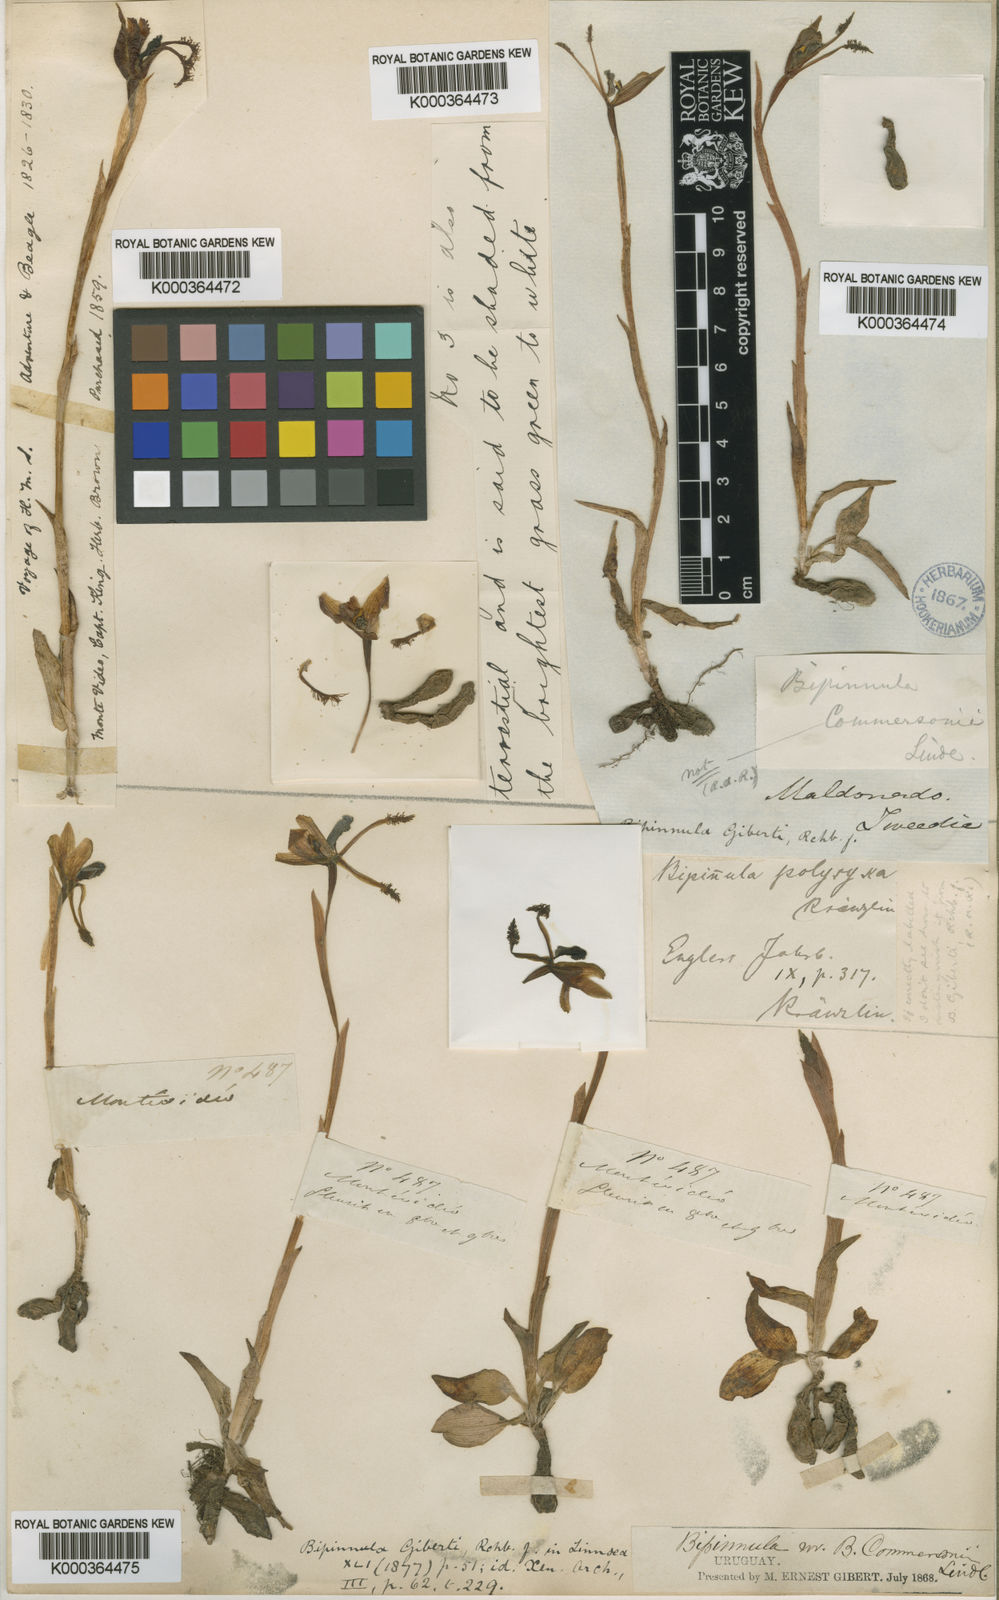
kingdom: Plantae
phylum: Tracheophyta
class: Liliopsida
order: Asparagales
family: Orchidaceae
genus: Bipinnula
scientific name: Bipinnula gibertii
